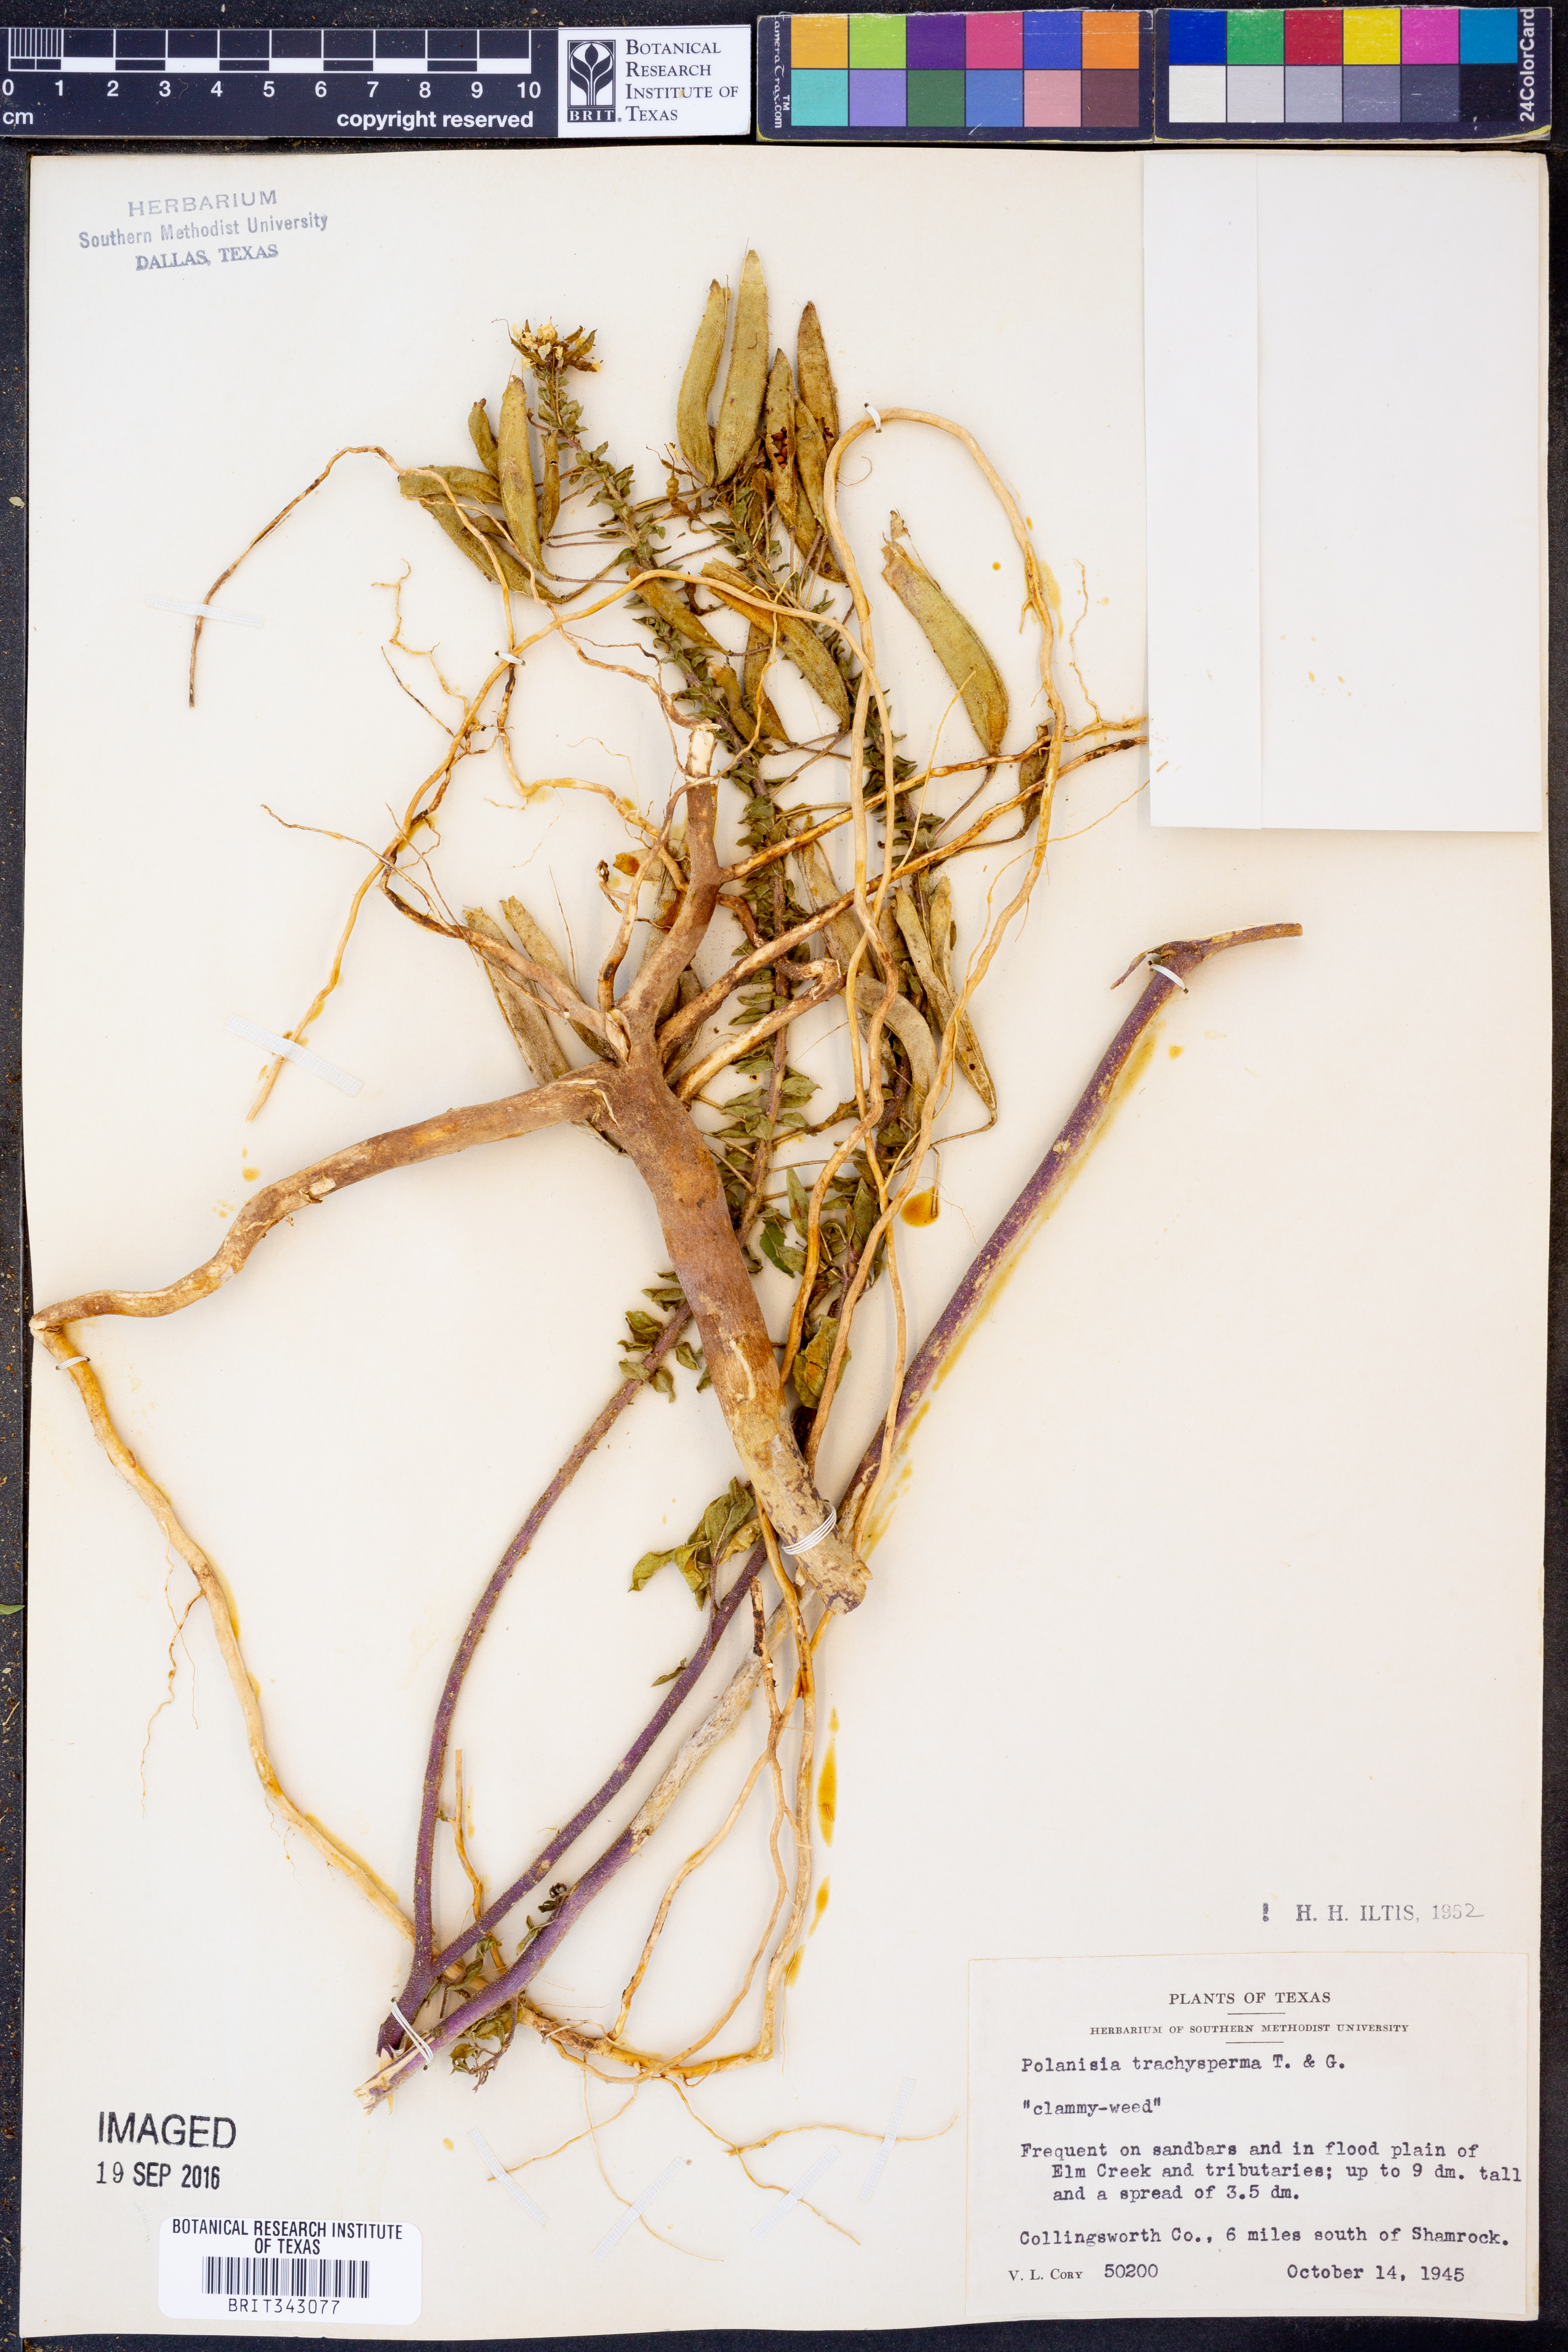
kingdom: Plantae
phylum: Tracheophyta
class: Magnoliopsida
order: Brassicales
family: Cleomaceae
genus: Polanisia
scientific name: Polanisia trachysperma
